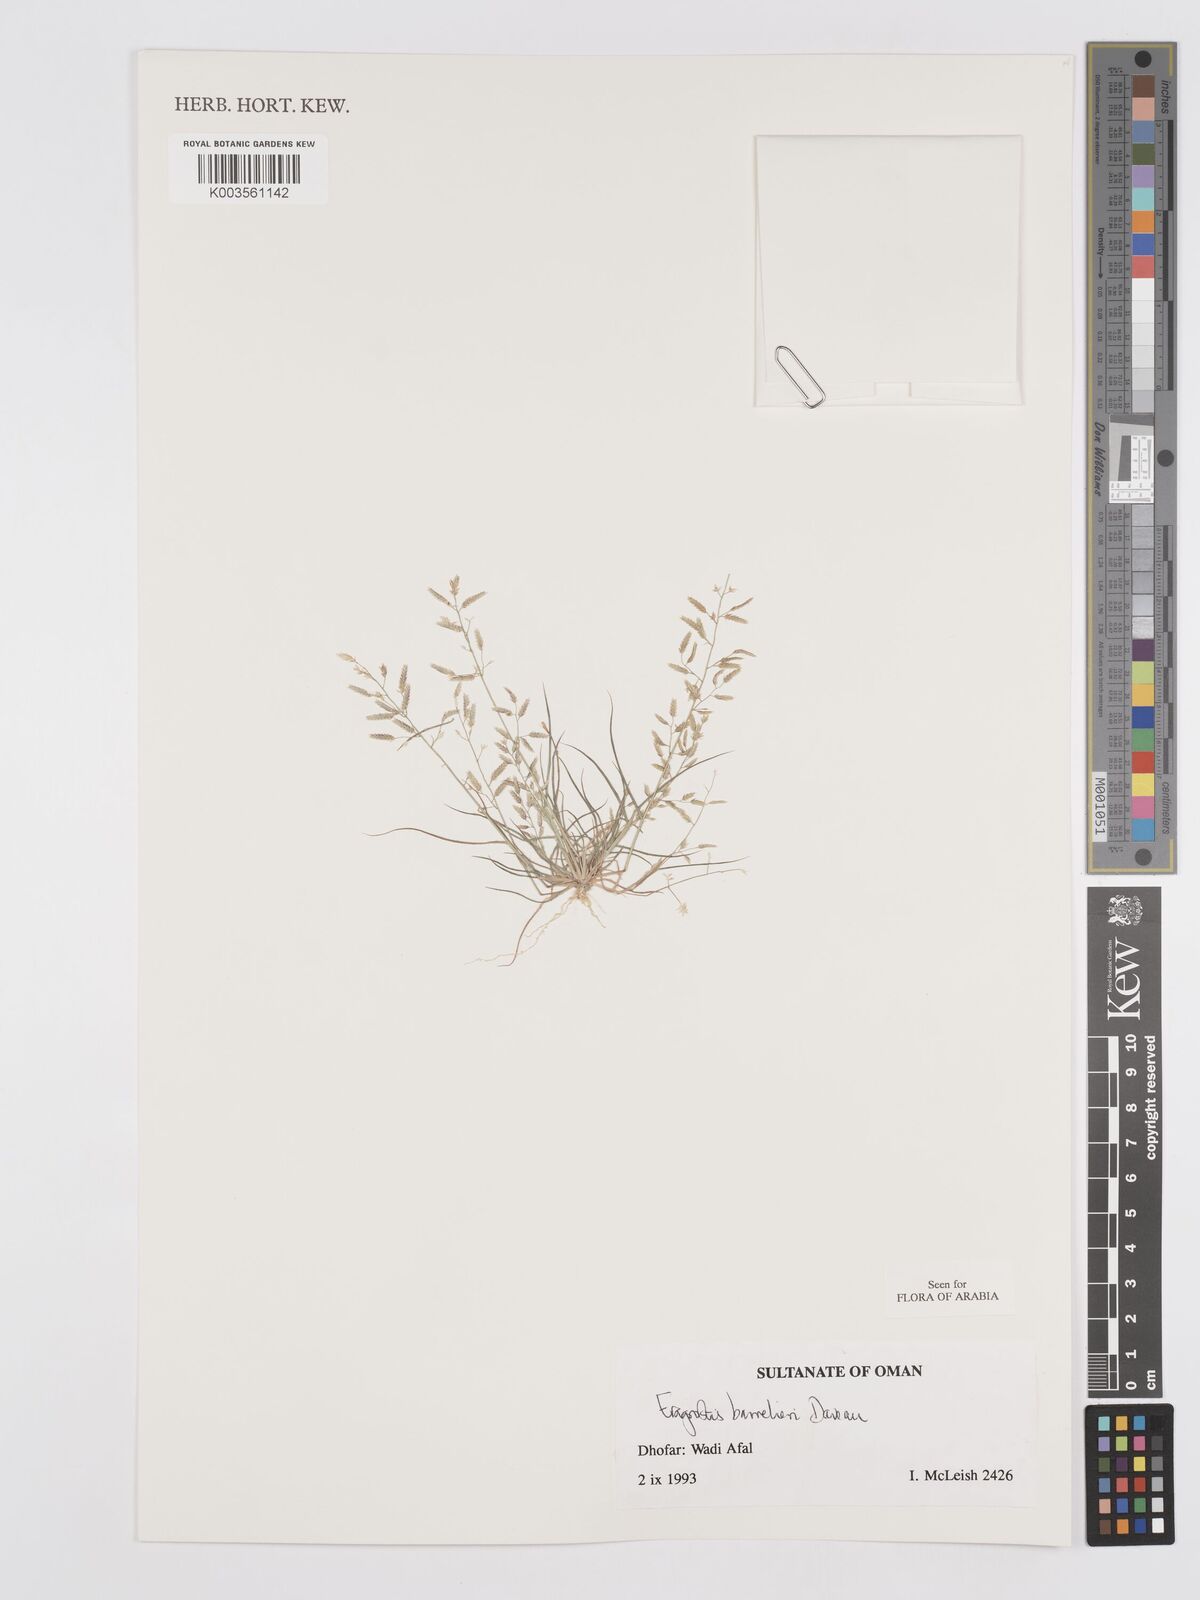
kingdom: Plantae
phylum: Tracheophyta
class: Liliopsida
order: Poales
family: Poaceae
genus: Eragrostis
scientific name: Eragrostis barrelieri
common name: Mediterranean lovegrass
